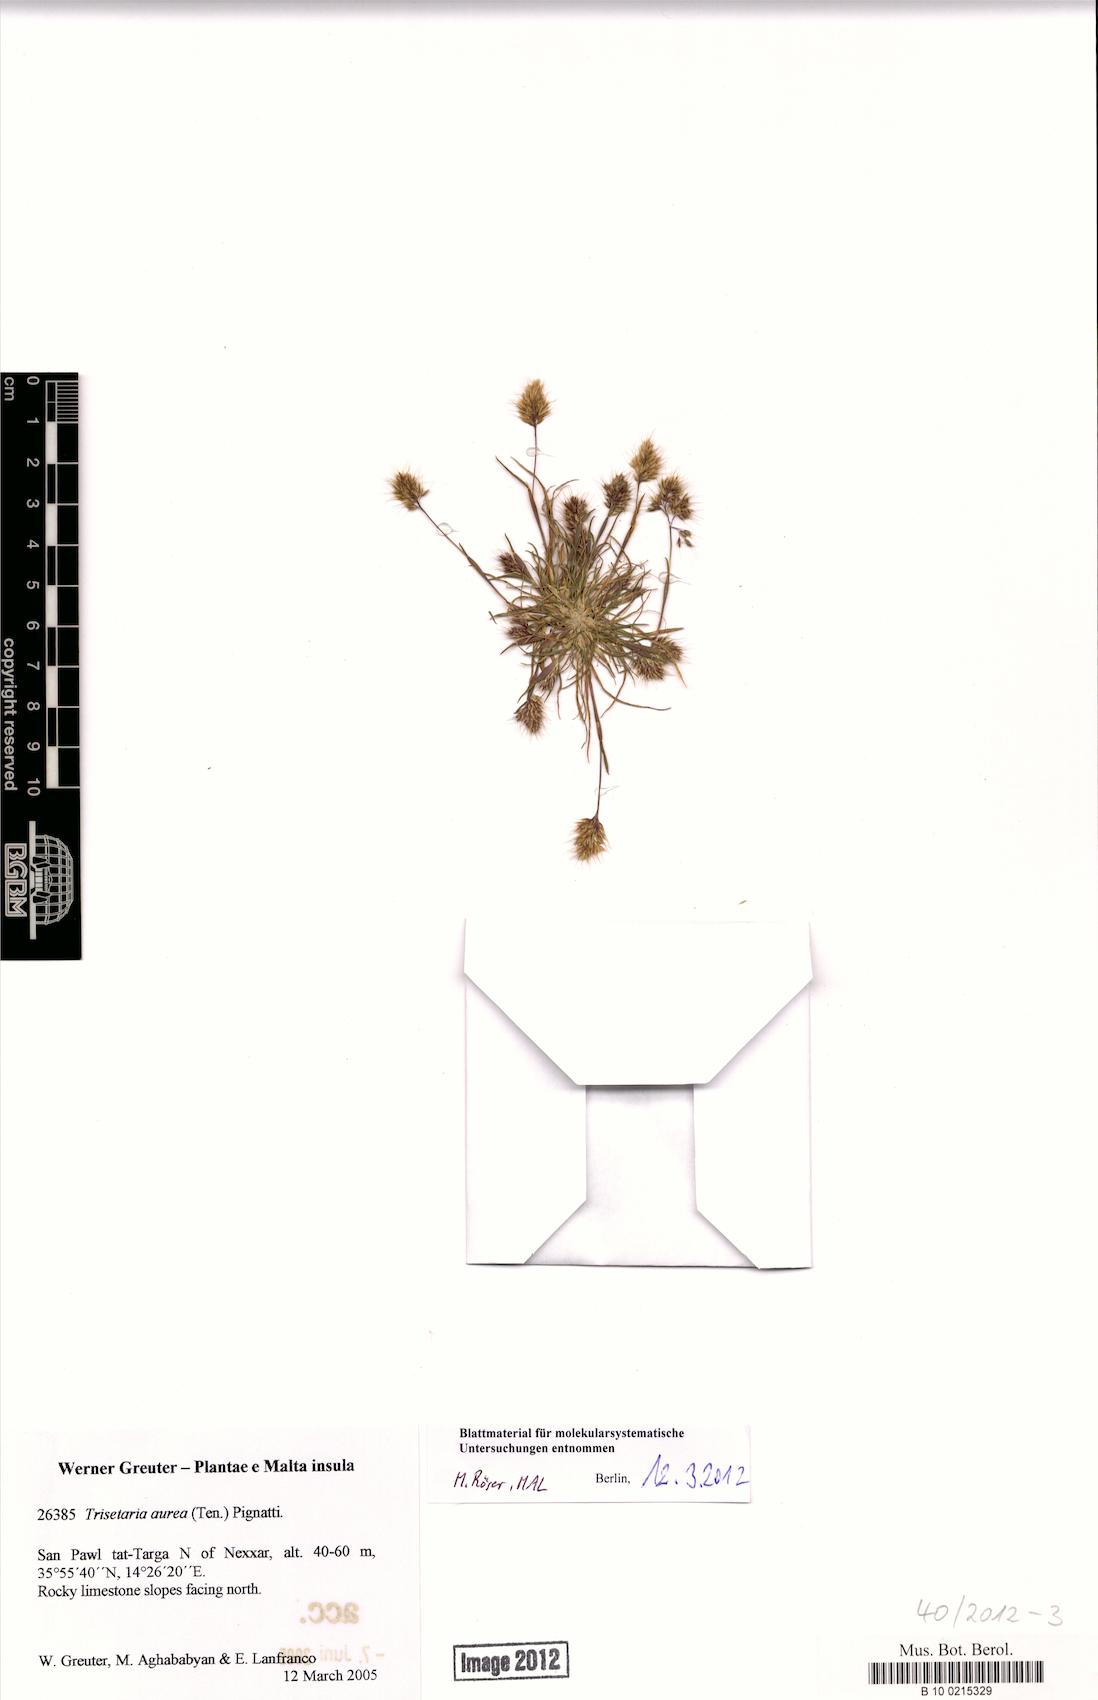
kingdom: Plantae
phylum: Tracheophyta
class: Liliopsida
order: Poales
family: Poaceae
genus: Trisetaria
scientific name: Trisetaria aurea
